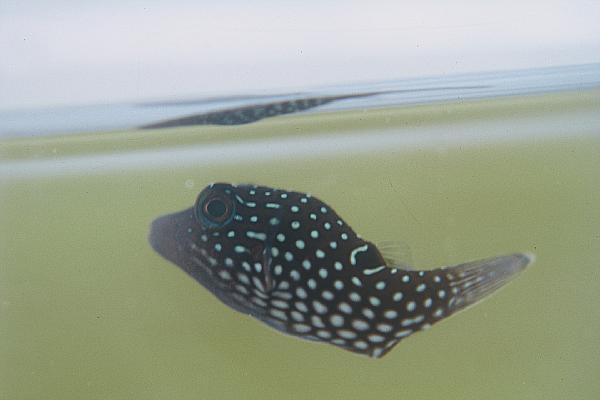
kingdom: Animalia
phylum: Chordata
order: Tetraodontiformes
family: Tetraodontidae
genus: Canthigaster
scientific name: Canthigaster solandri
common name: False-eye toby
